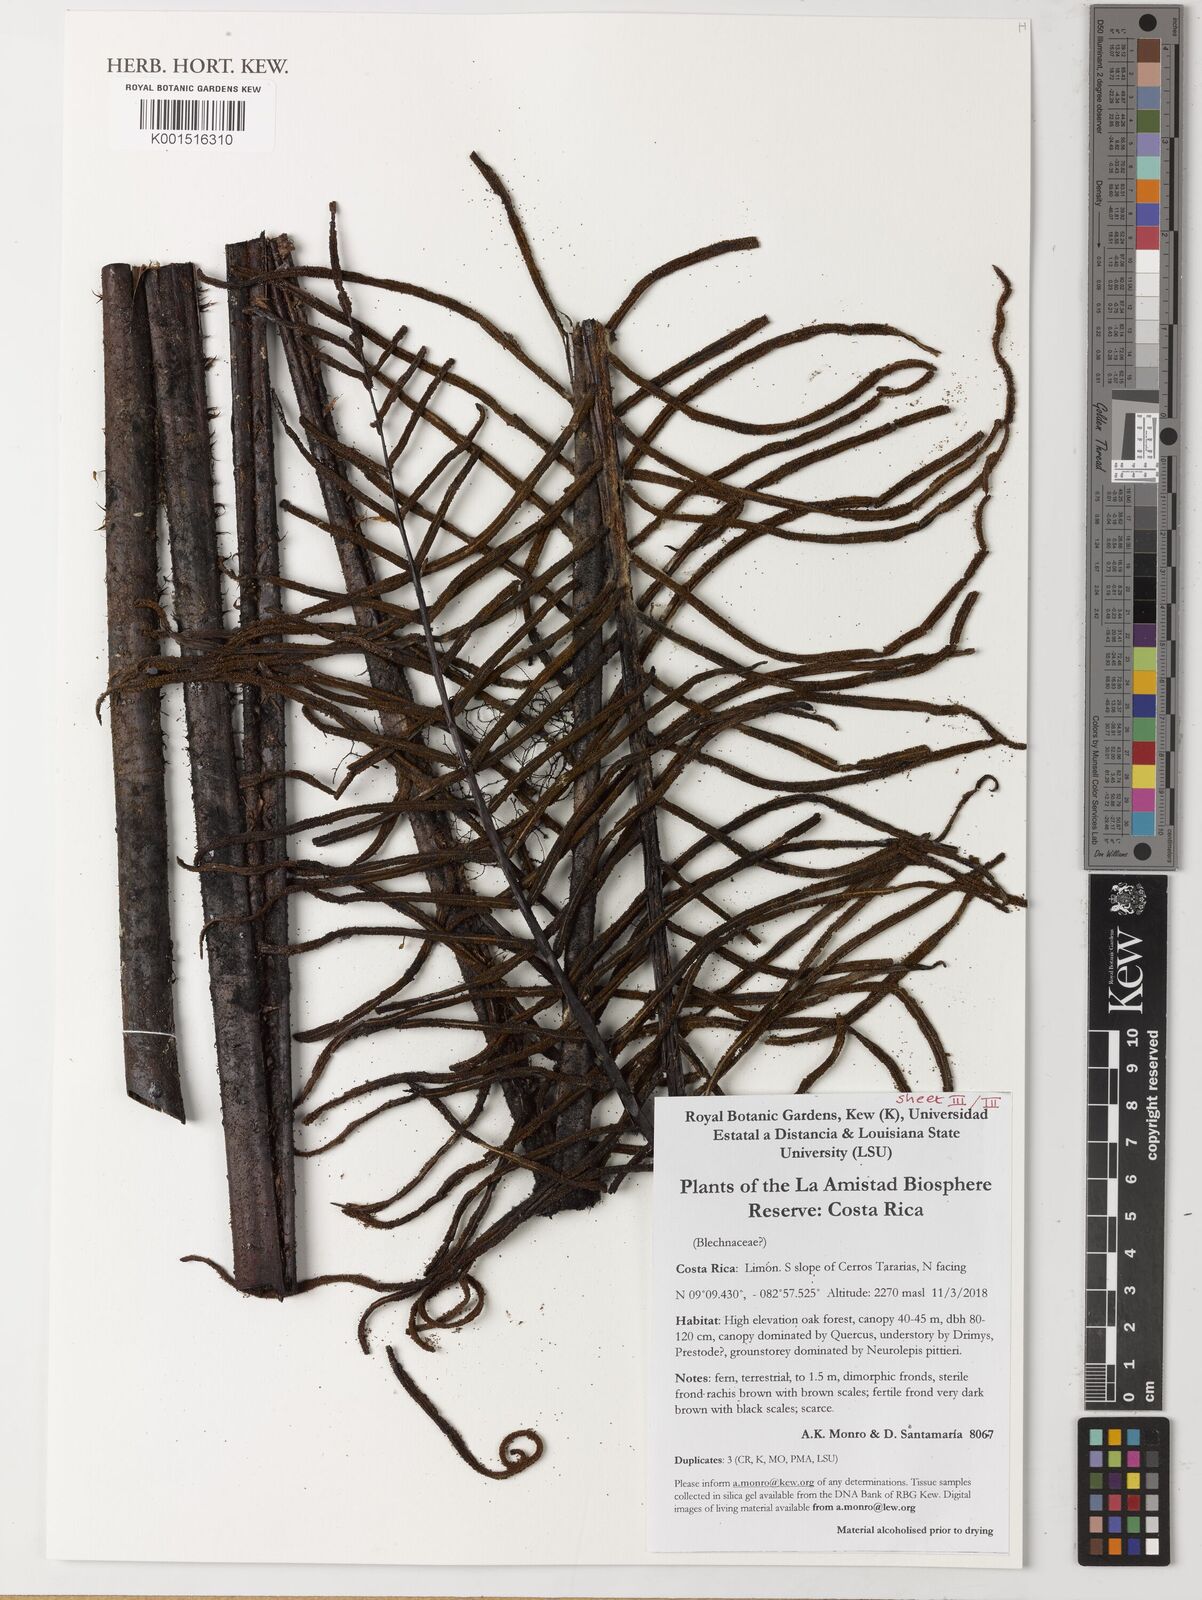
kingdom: Plantae
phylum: Tracheophyta
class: Polypodiopsida
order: Polypodiales
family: Blechnaceae
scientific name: Blechnaceae
